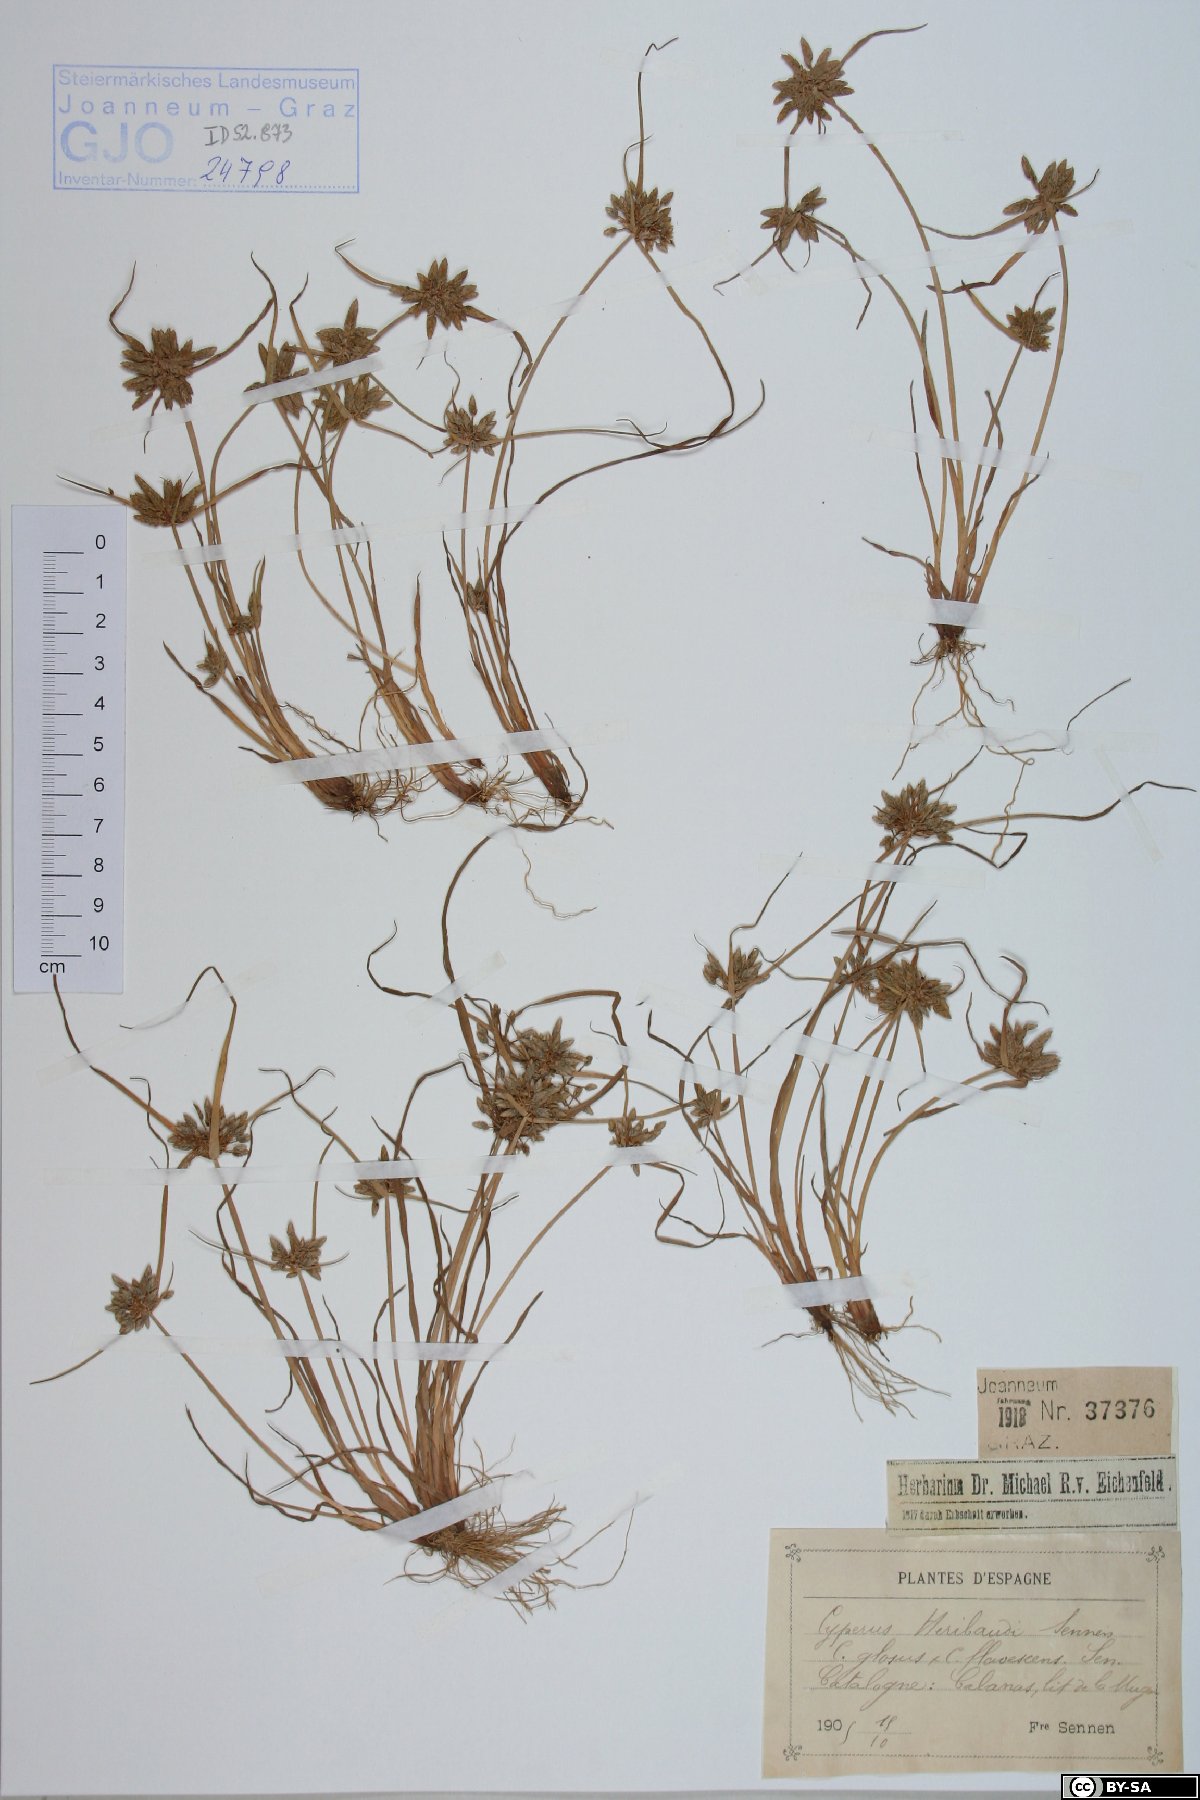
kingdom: Plantae
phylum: Tracheophyta
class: Liliopsida
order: Poales
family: Cyperaceae
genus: Cyperus
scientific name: Cyperus heribaudii
